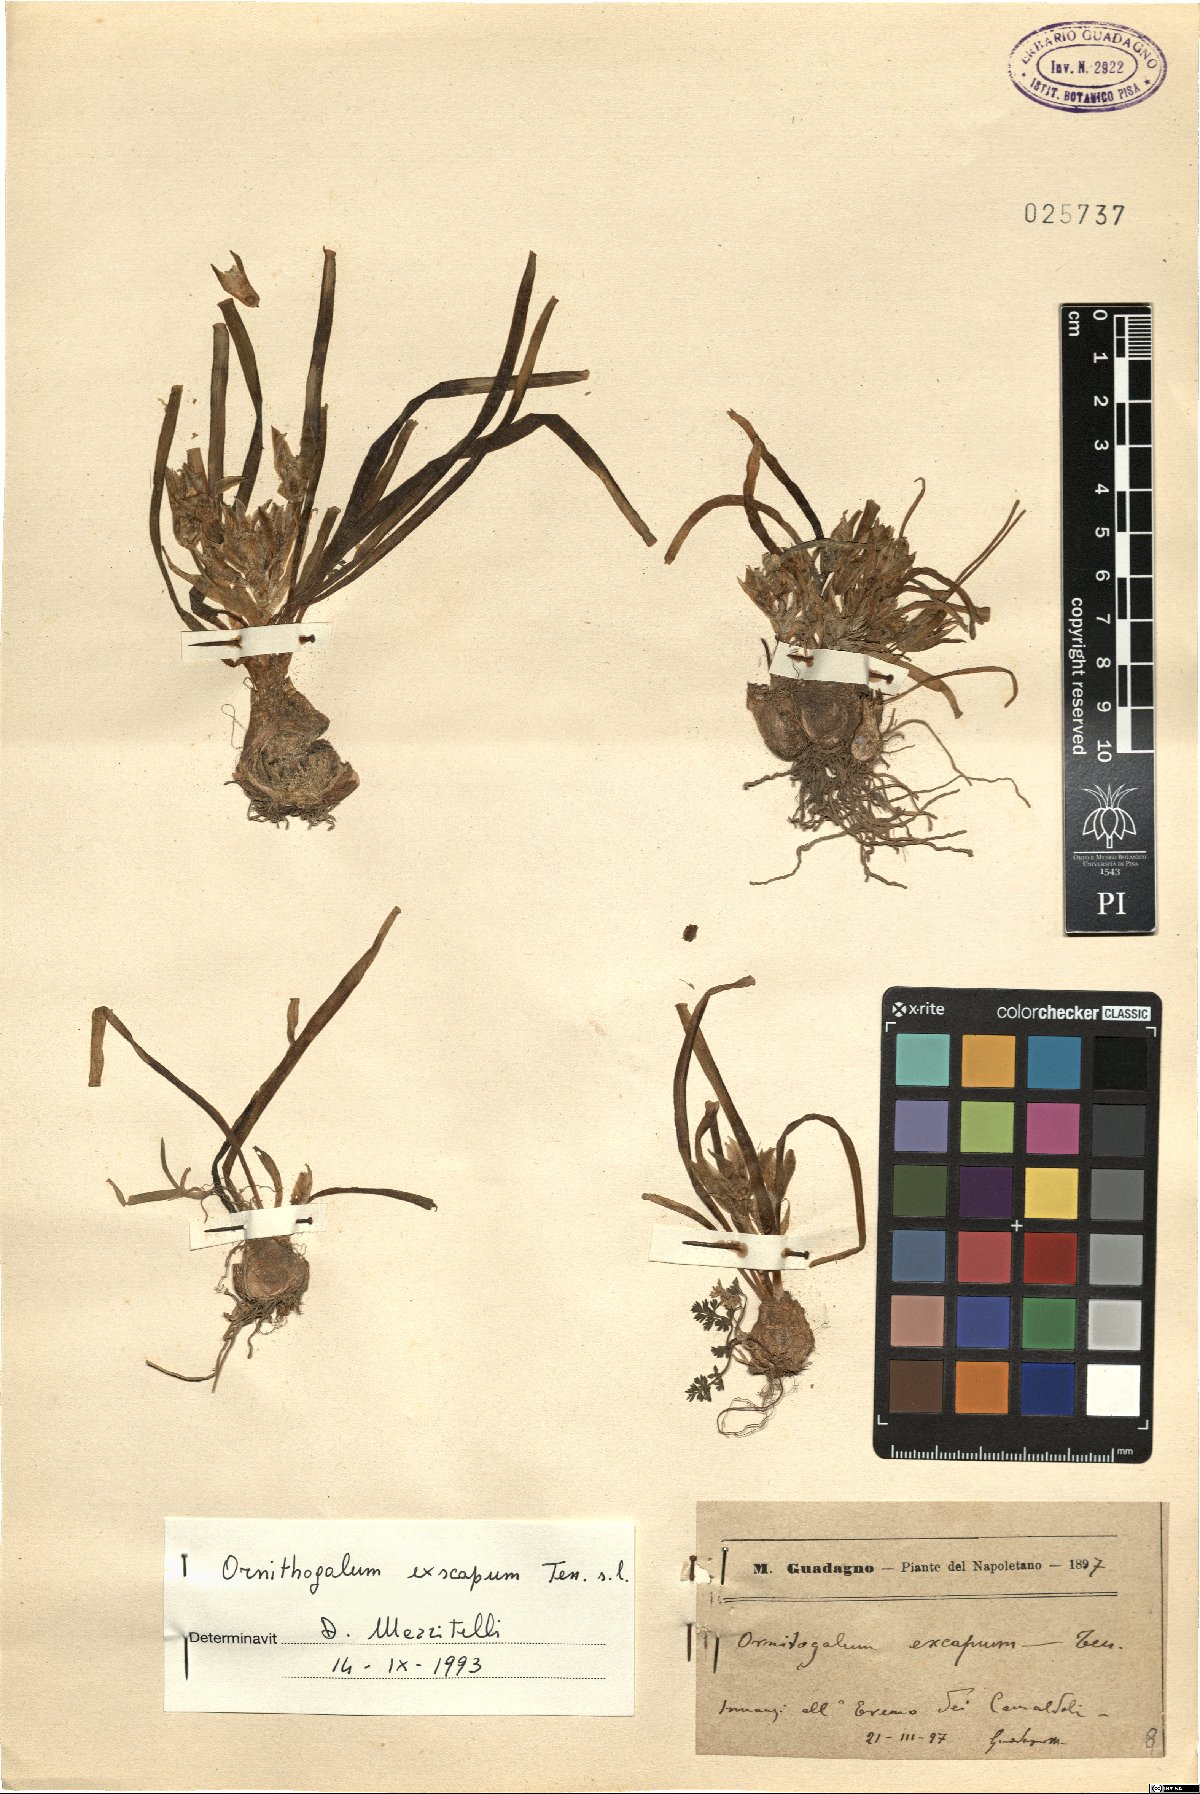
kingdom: Plantae
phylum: Tracheophyta
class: Liliopsida
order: Asparagales
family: Asparagaceae
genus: Ornithogalum
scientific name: Ornithogalum exscapum
